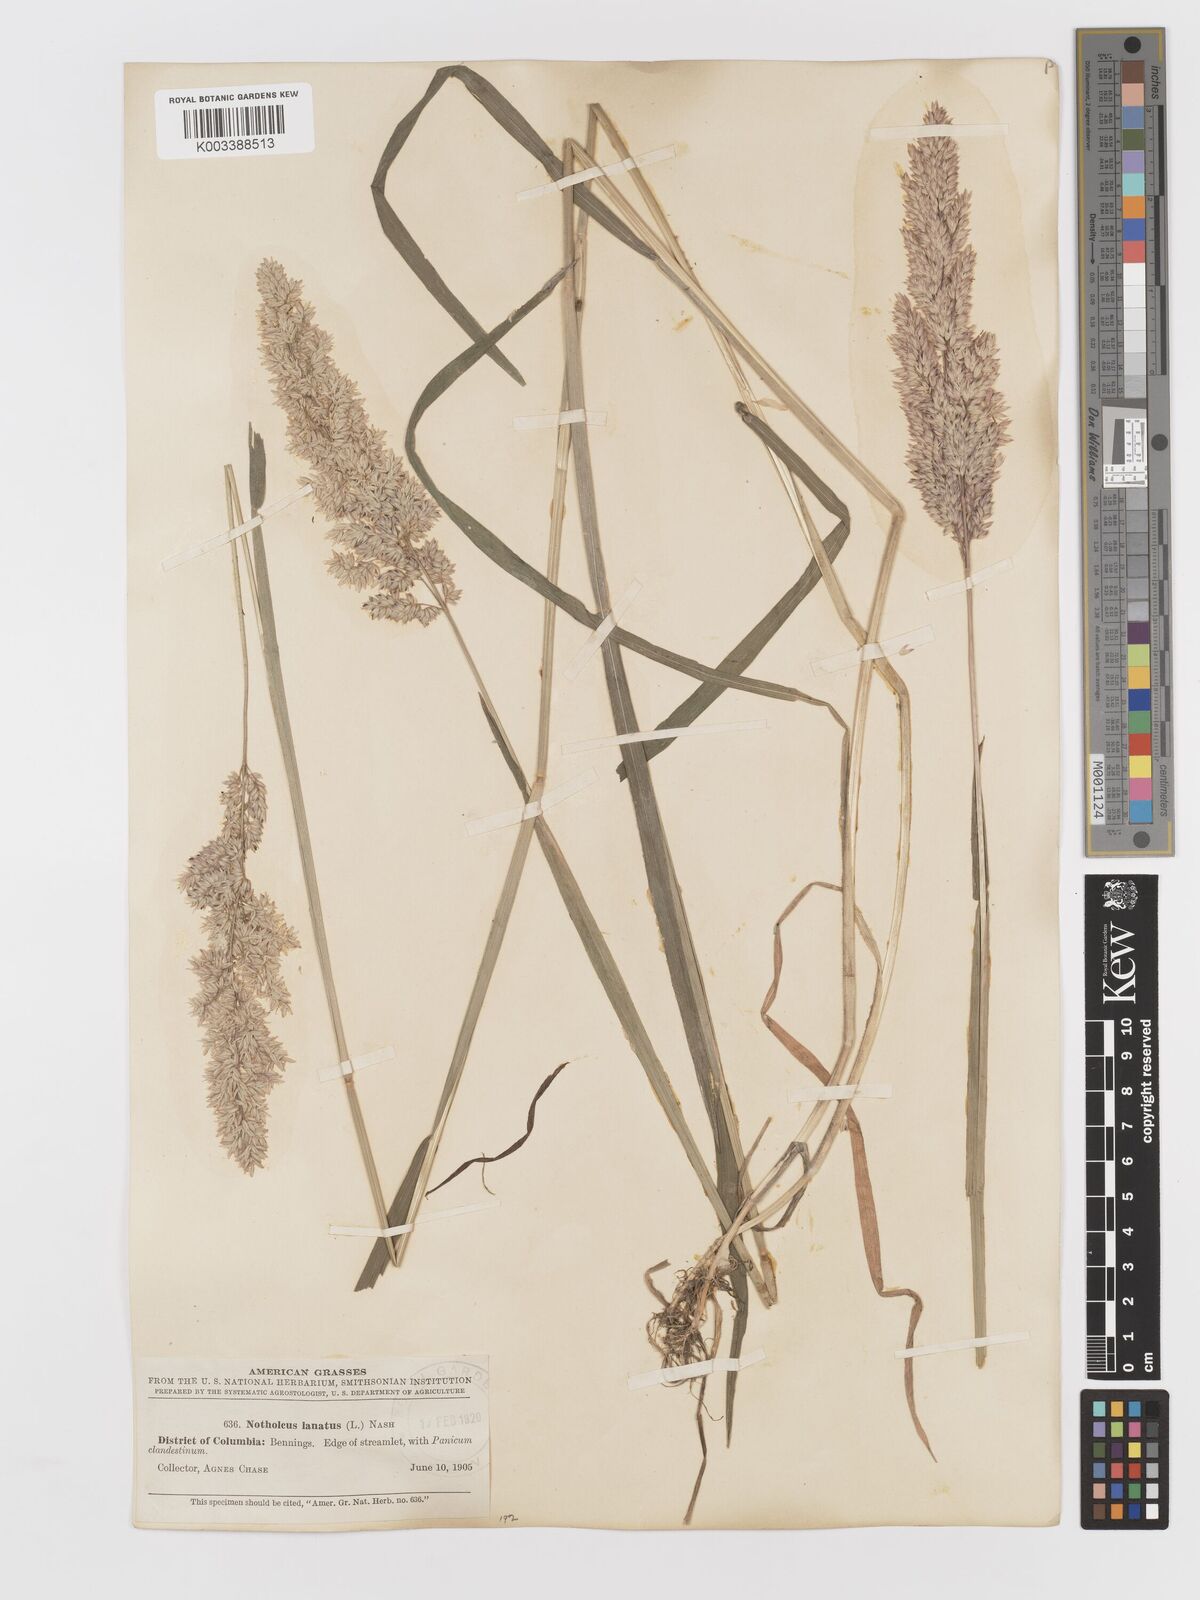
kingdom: Plantae
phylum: Tracheophyta
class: Liliopsida
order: Poales
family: Poaceae
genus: Holcus
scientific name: Holcus lanatus
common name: Yorkshire-fog
